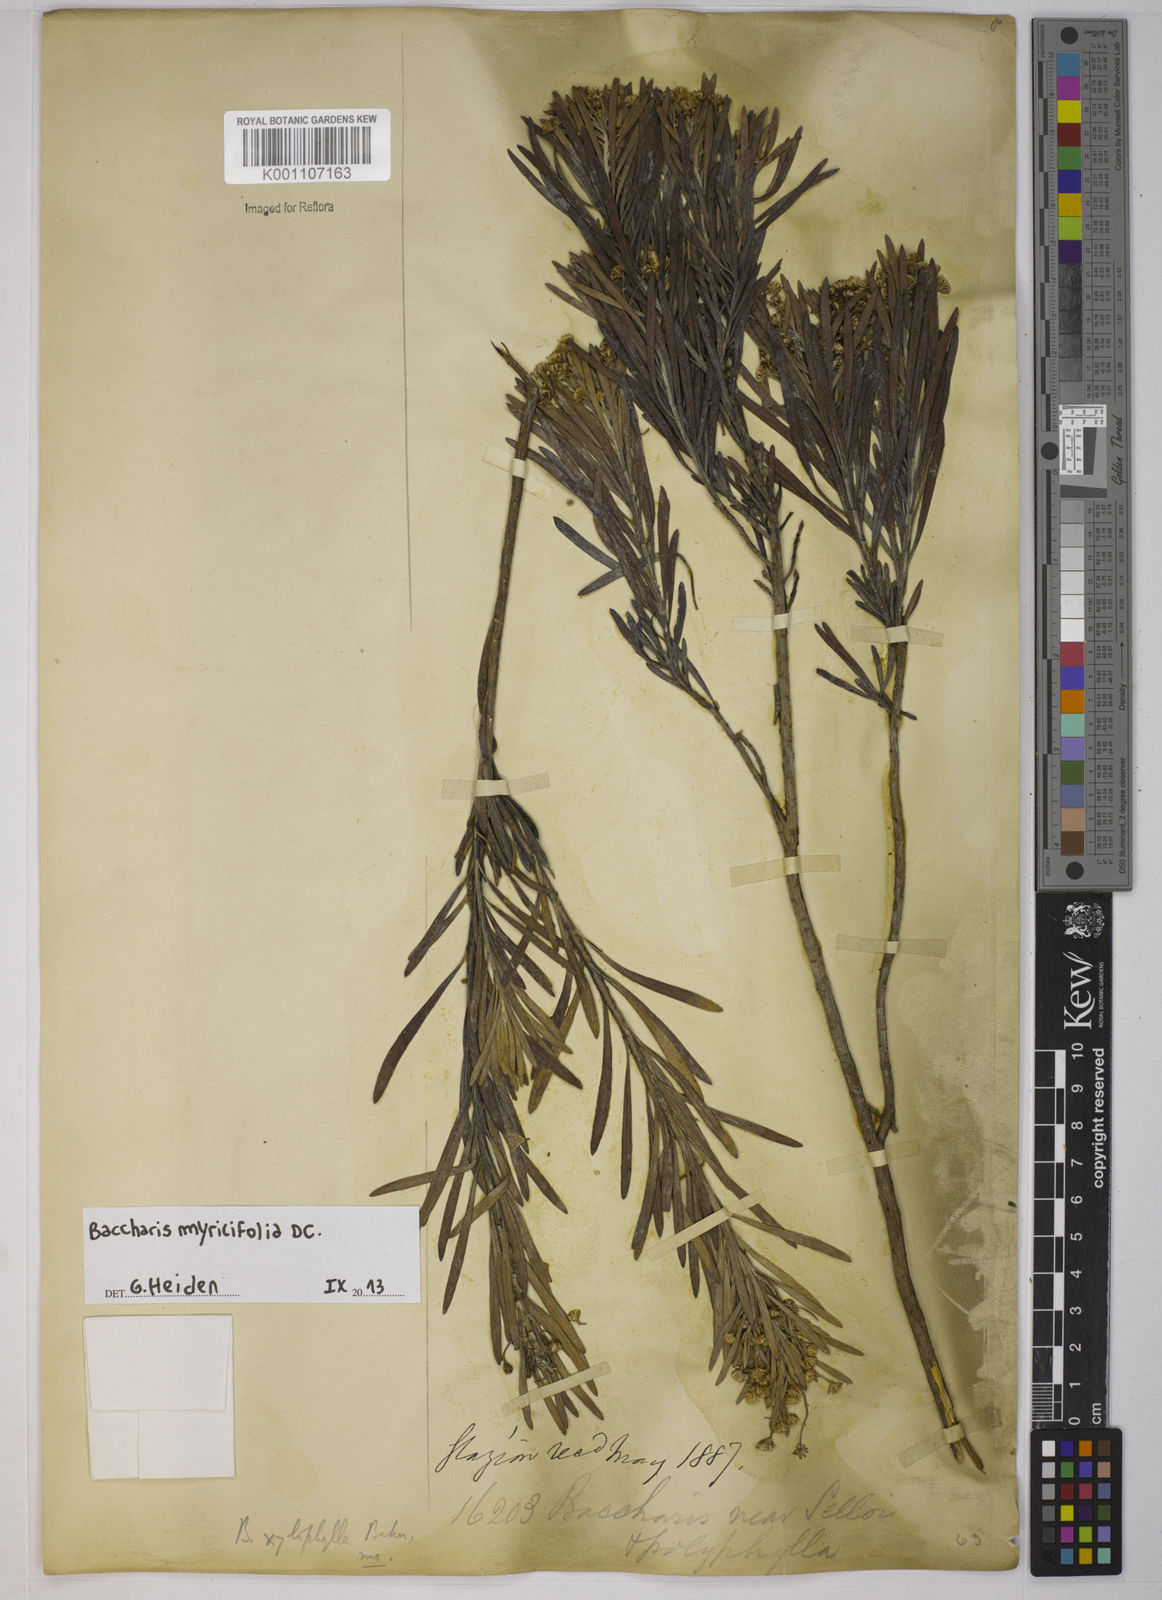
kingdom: Plantae
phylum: Tracheophyta
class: Magnoliopsida
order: Asterales
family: Asteraceae
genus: Baccharis
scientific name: Baccharis myricifolia
